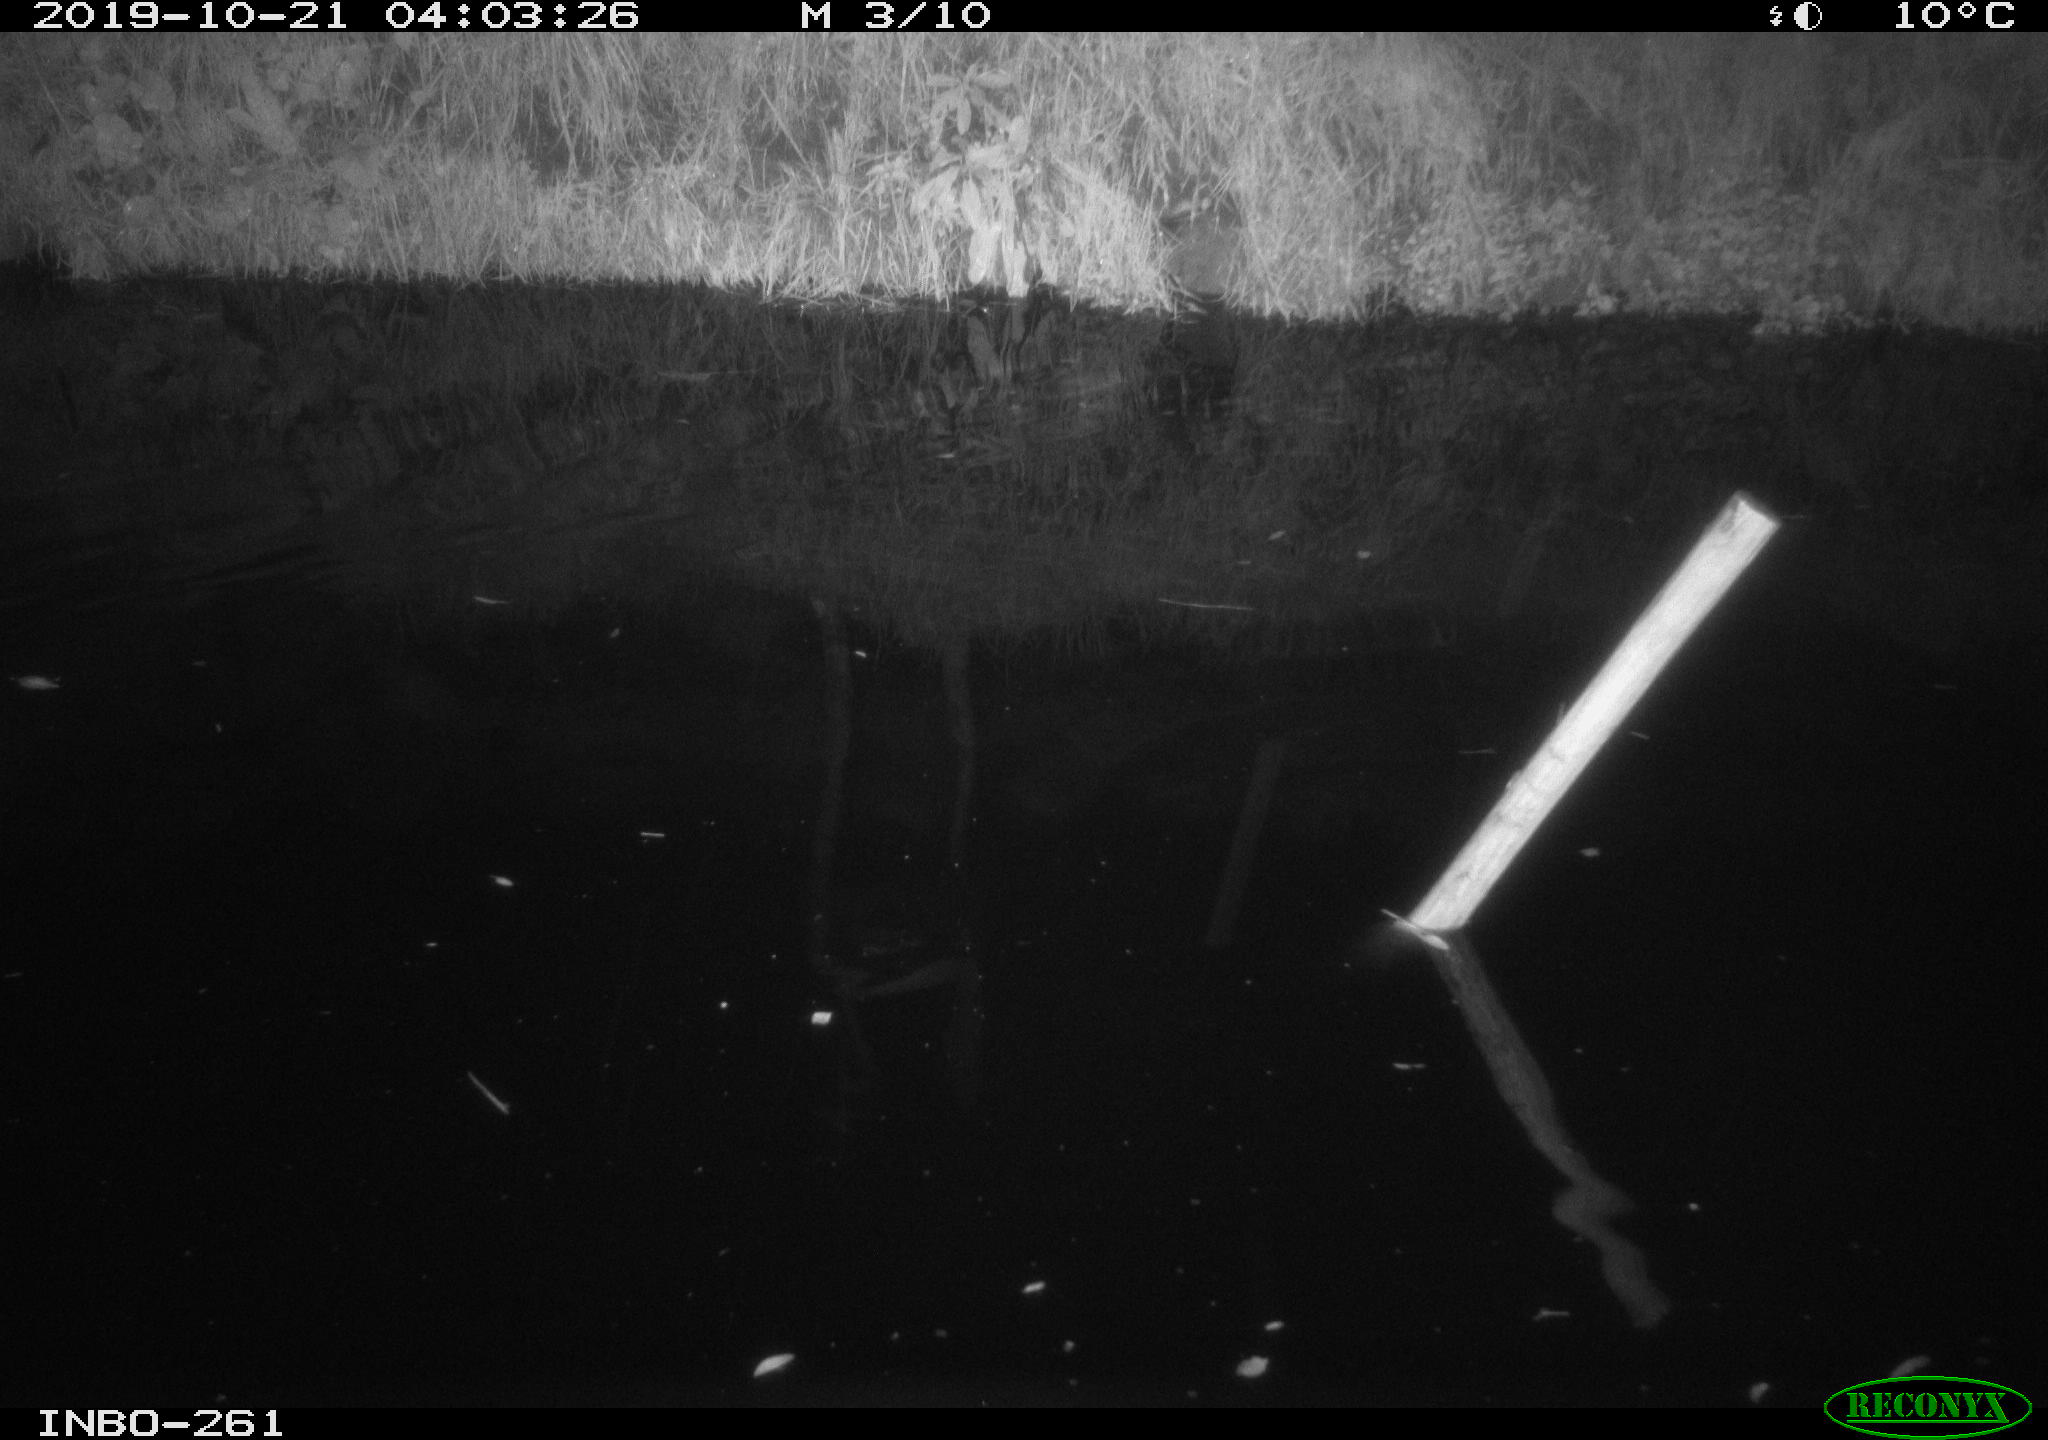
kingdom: Animalia
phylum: Chordata
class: Aves
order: Anseriformes
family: Anatidae
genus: Anas
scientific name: Anas platyrhynchos
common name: Mallard
